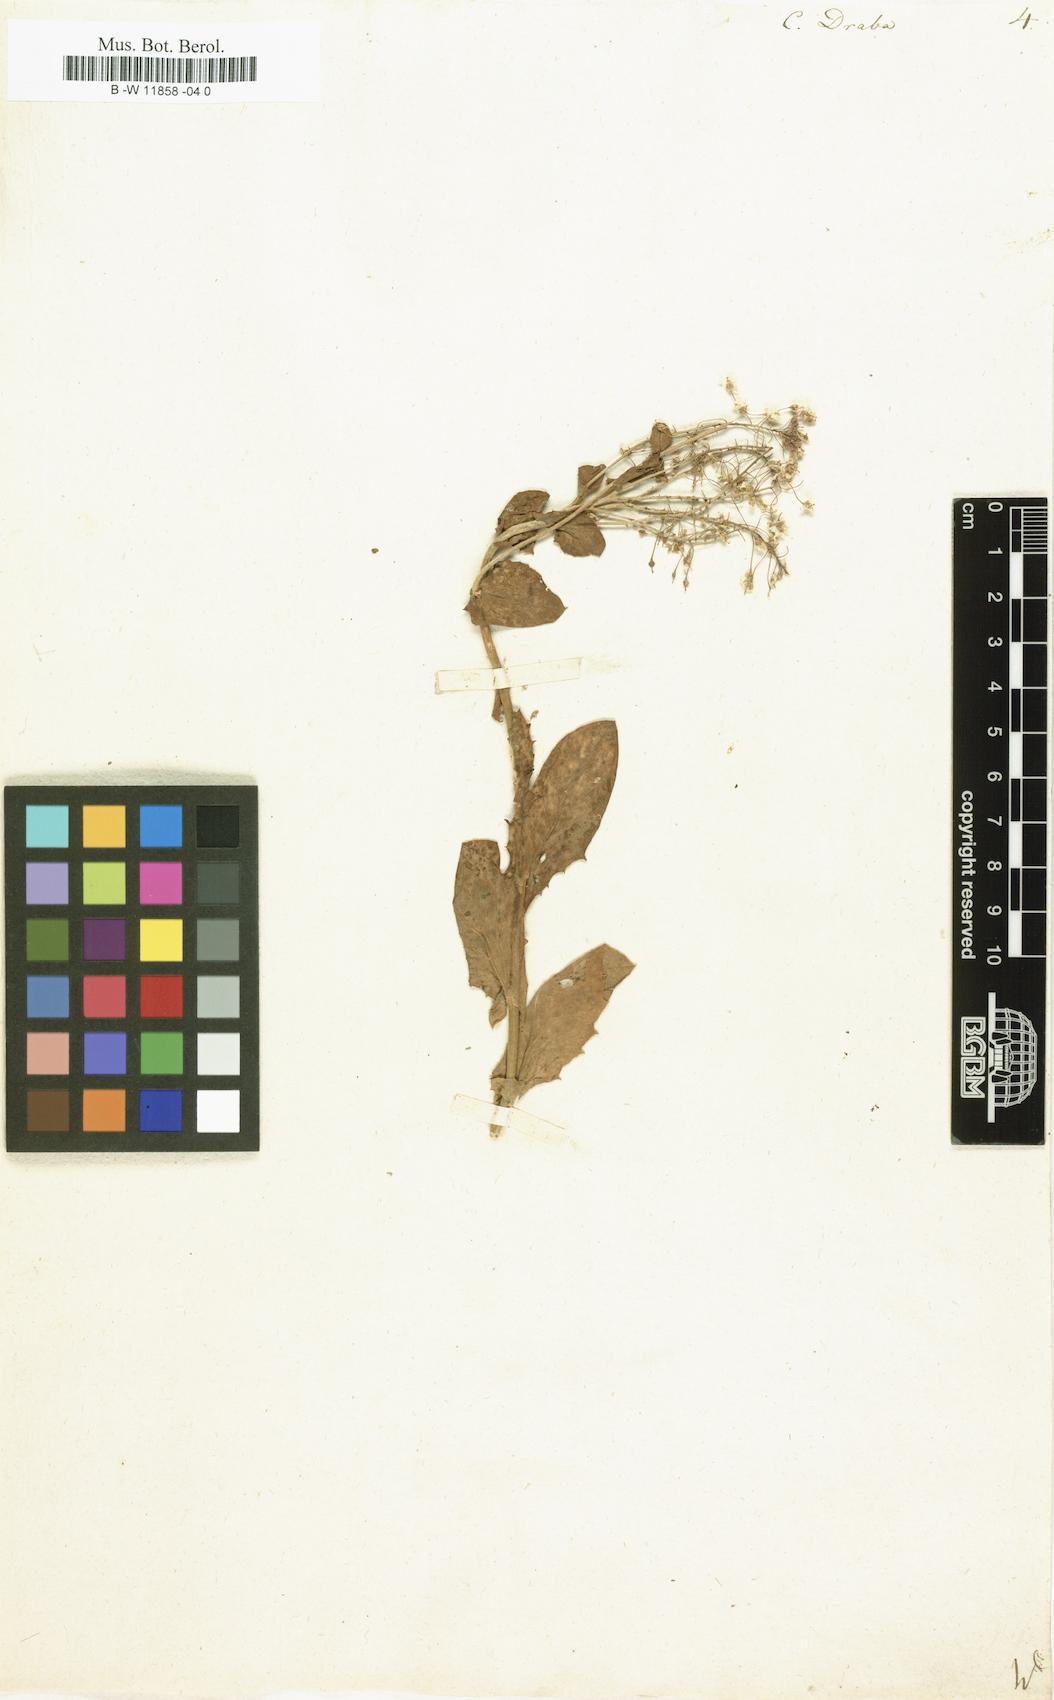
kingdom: Plantae
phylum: Tracheophyta
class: Magnoliopsida
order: Brassicales
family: Brassicaceae
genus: Lepidium
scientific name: Lepidium draba
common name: Hoary cress
